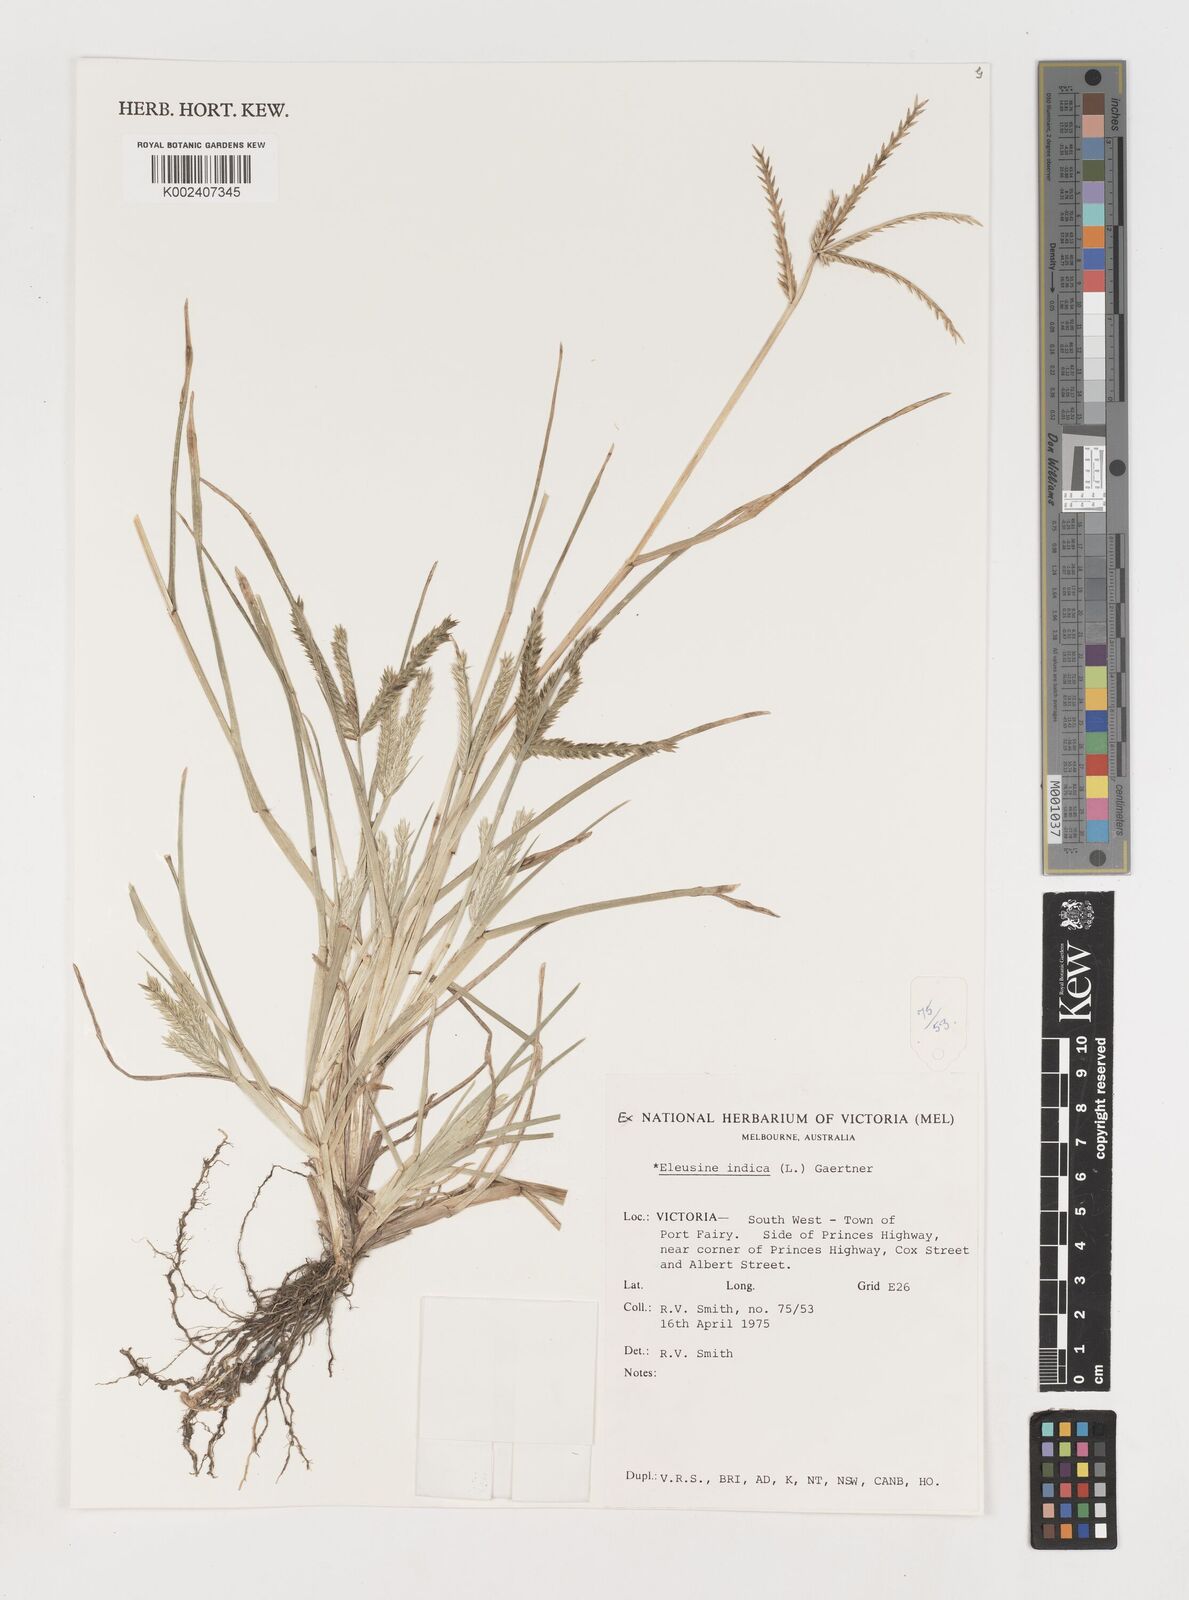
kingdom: Plantae
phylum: Tracheophyta
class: Liliopsida
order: Poales
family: Poaceae
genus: Eleusine
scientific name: Eleusine indica
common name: Yard-grass
